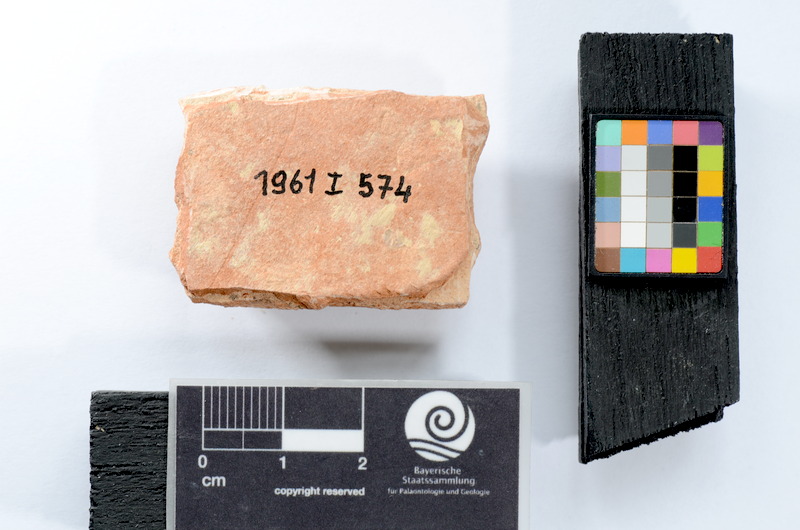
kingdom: Animalia
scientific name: Animalia
